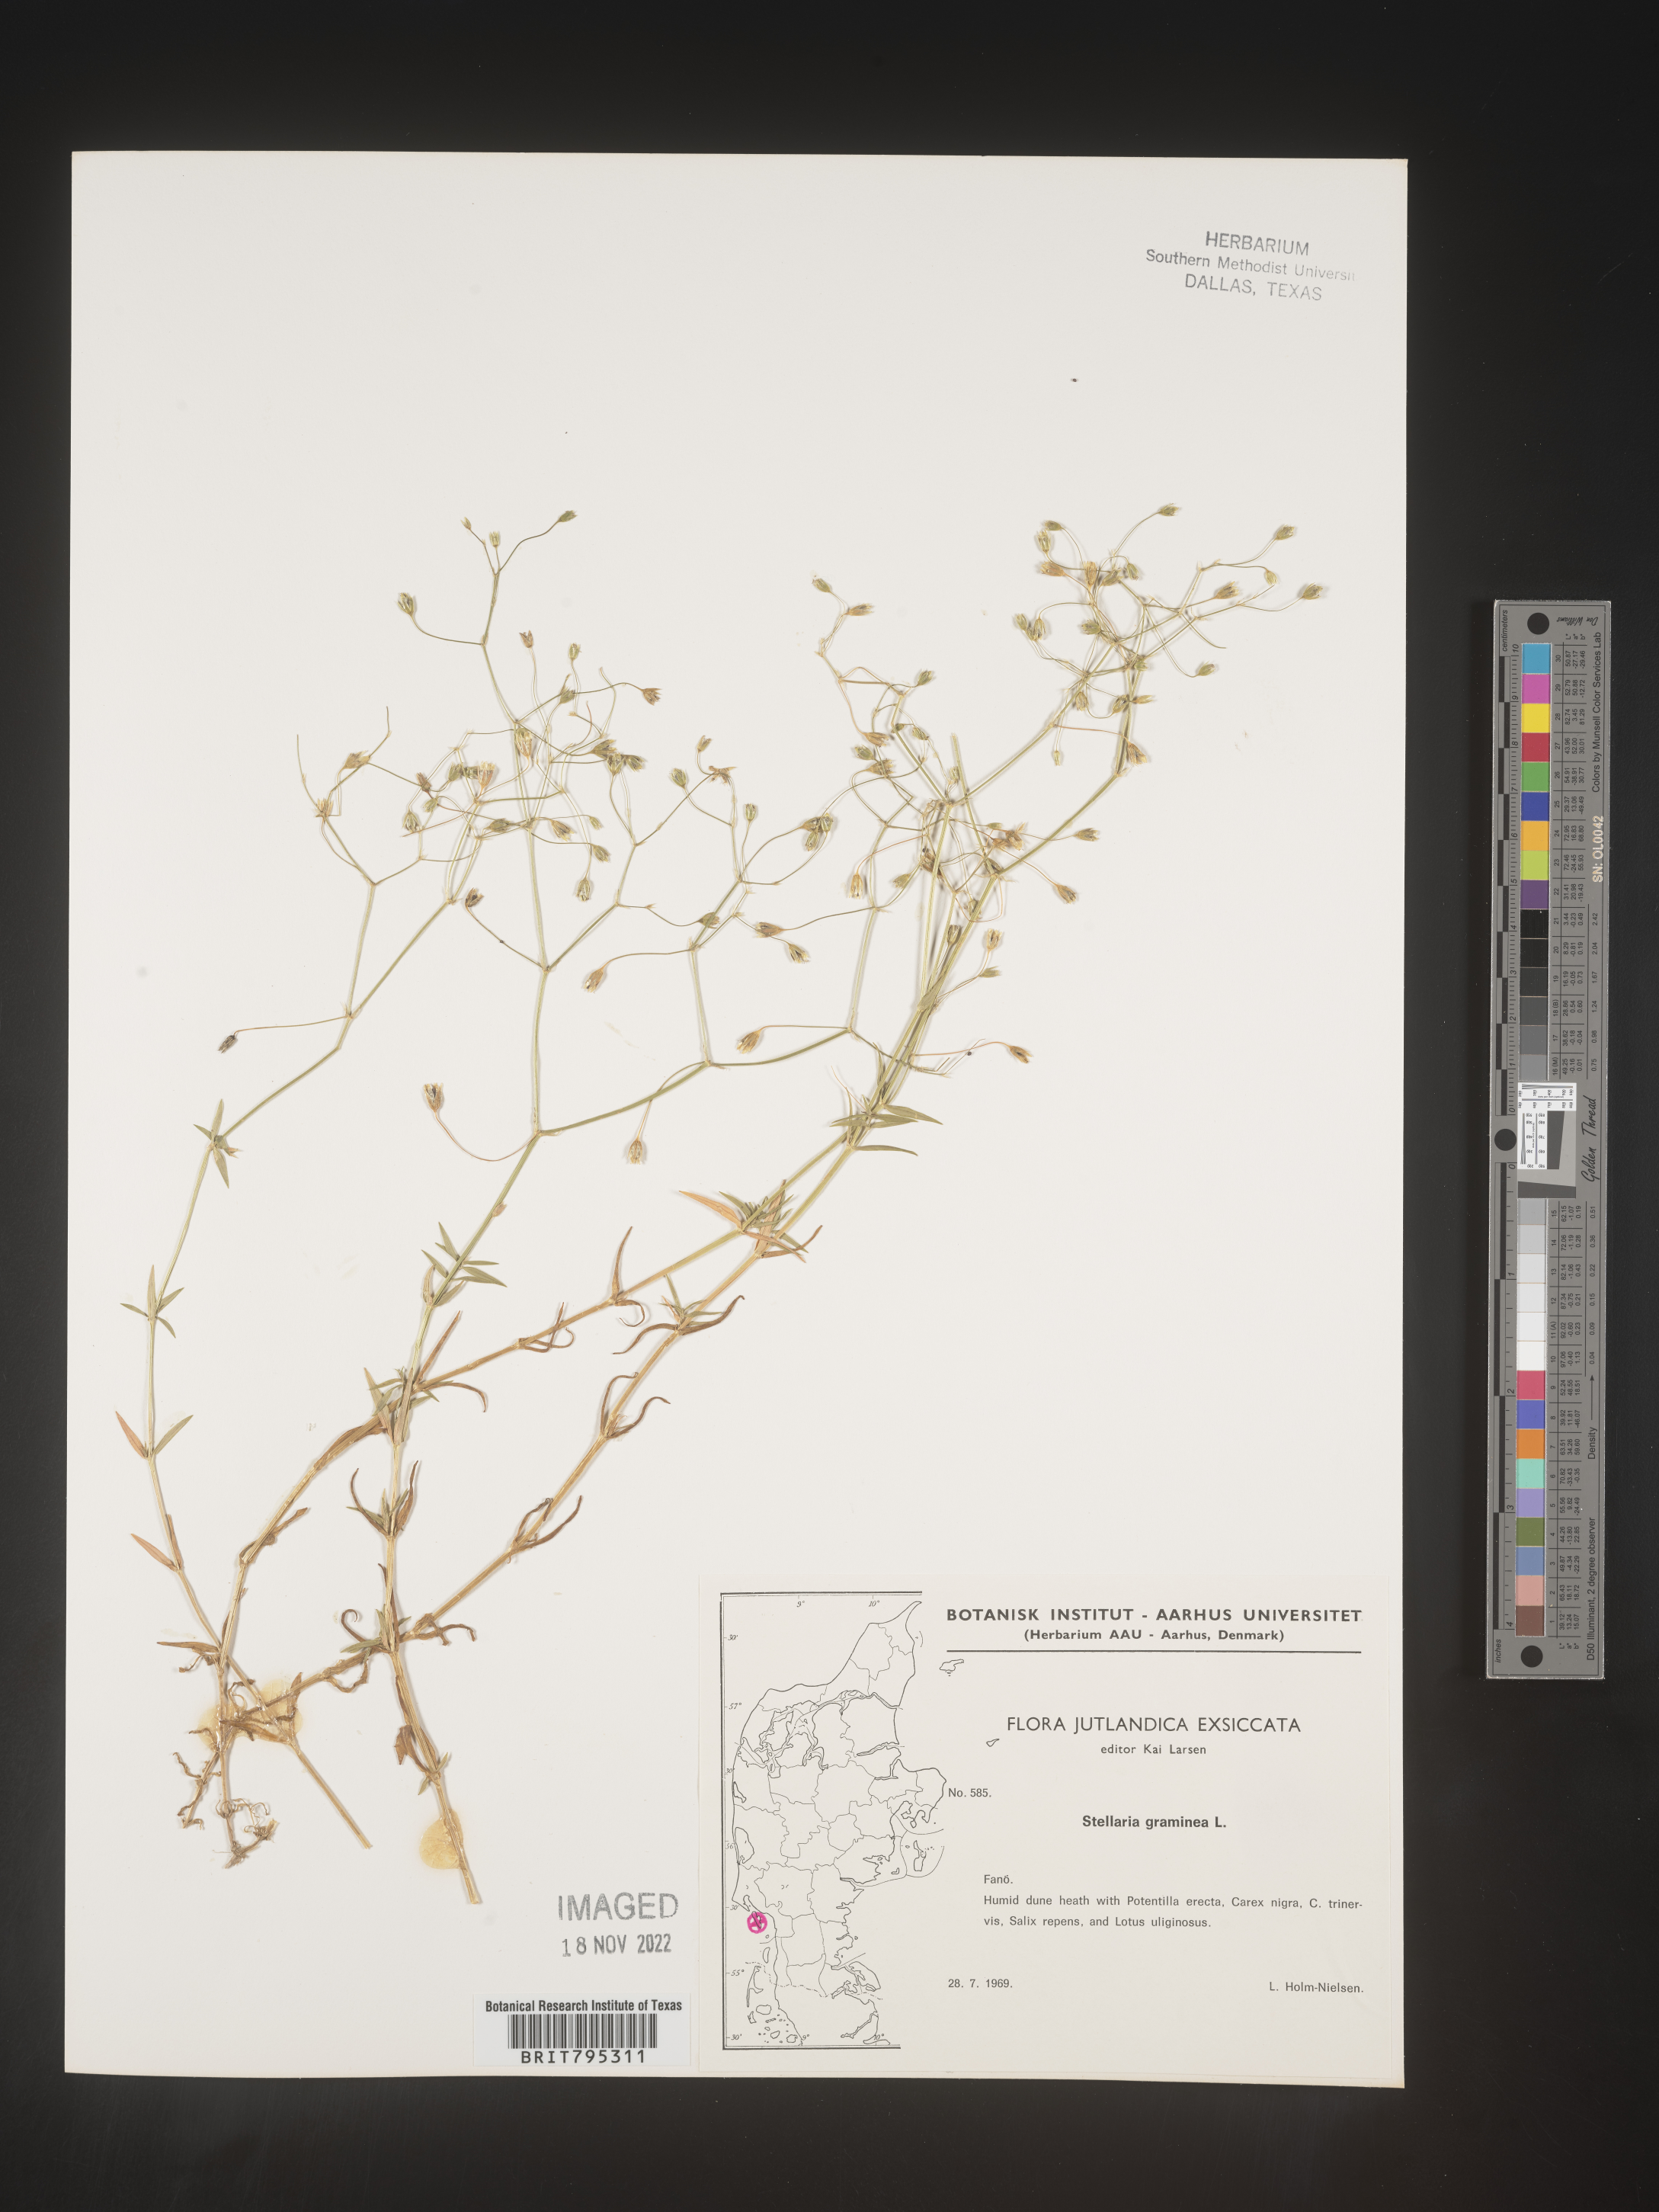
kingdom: Plantae
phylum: Tracheophyta
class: Magnoliopsida
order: Caryophyllales
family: Caryophyllaceae
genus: Stellaria
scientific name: Stellaria
